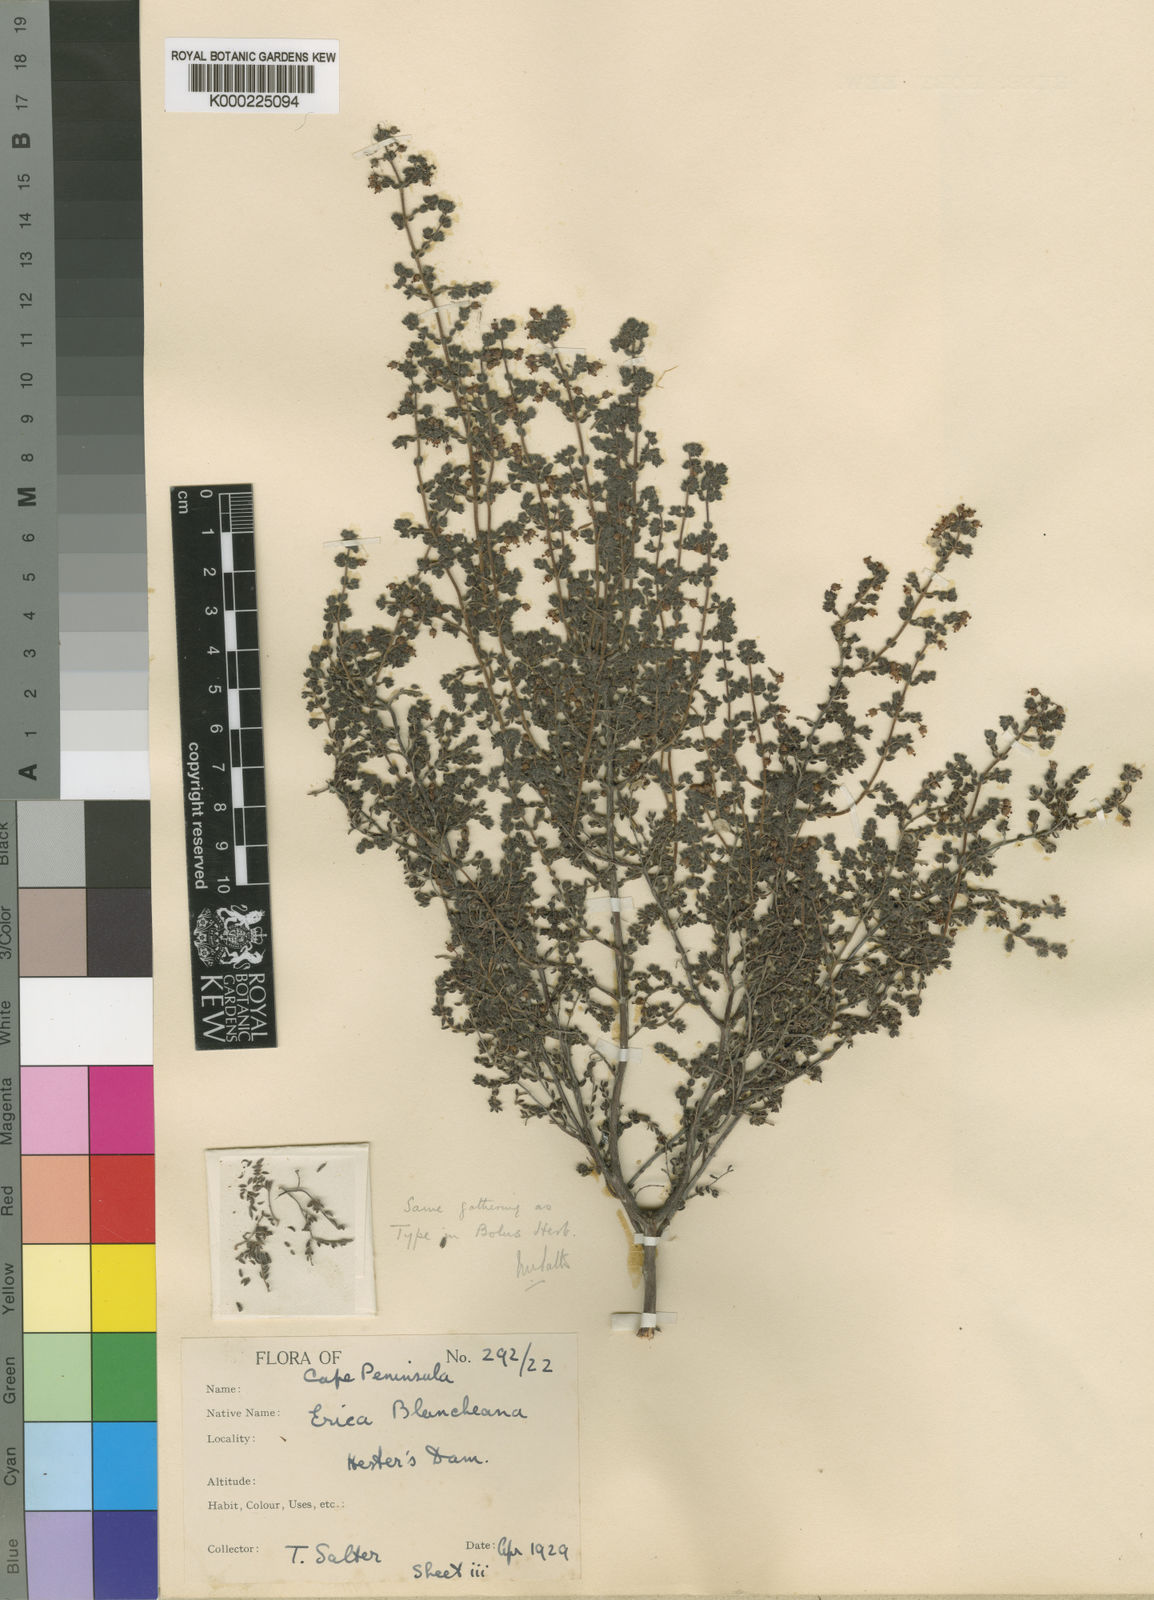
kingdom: Plantae
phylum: Tracheophyta
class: Magnoliopsida
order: Ericales
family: Ericaceae
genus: Erica
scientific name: Erica blancheana
